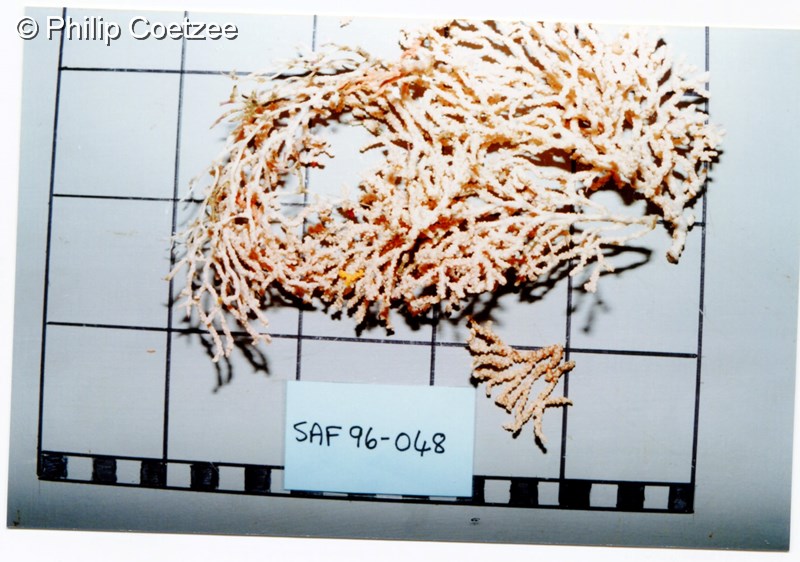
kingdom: Animalia
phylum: Cnidaria
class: Anthozoa
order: Malacalcyonacea
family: Melithaeidae
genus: Melithaea
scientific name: Melithaea rubra
